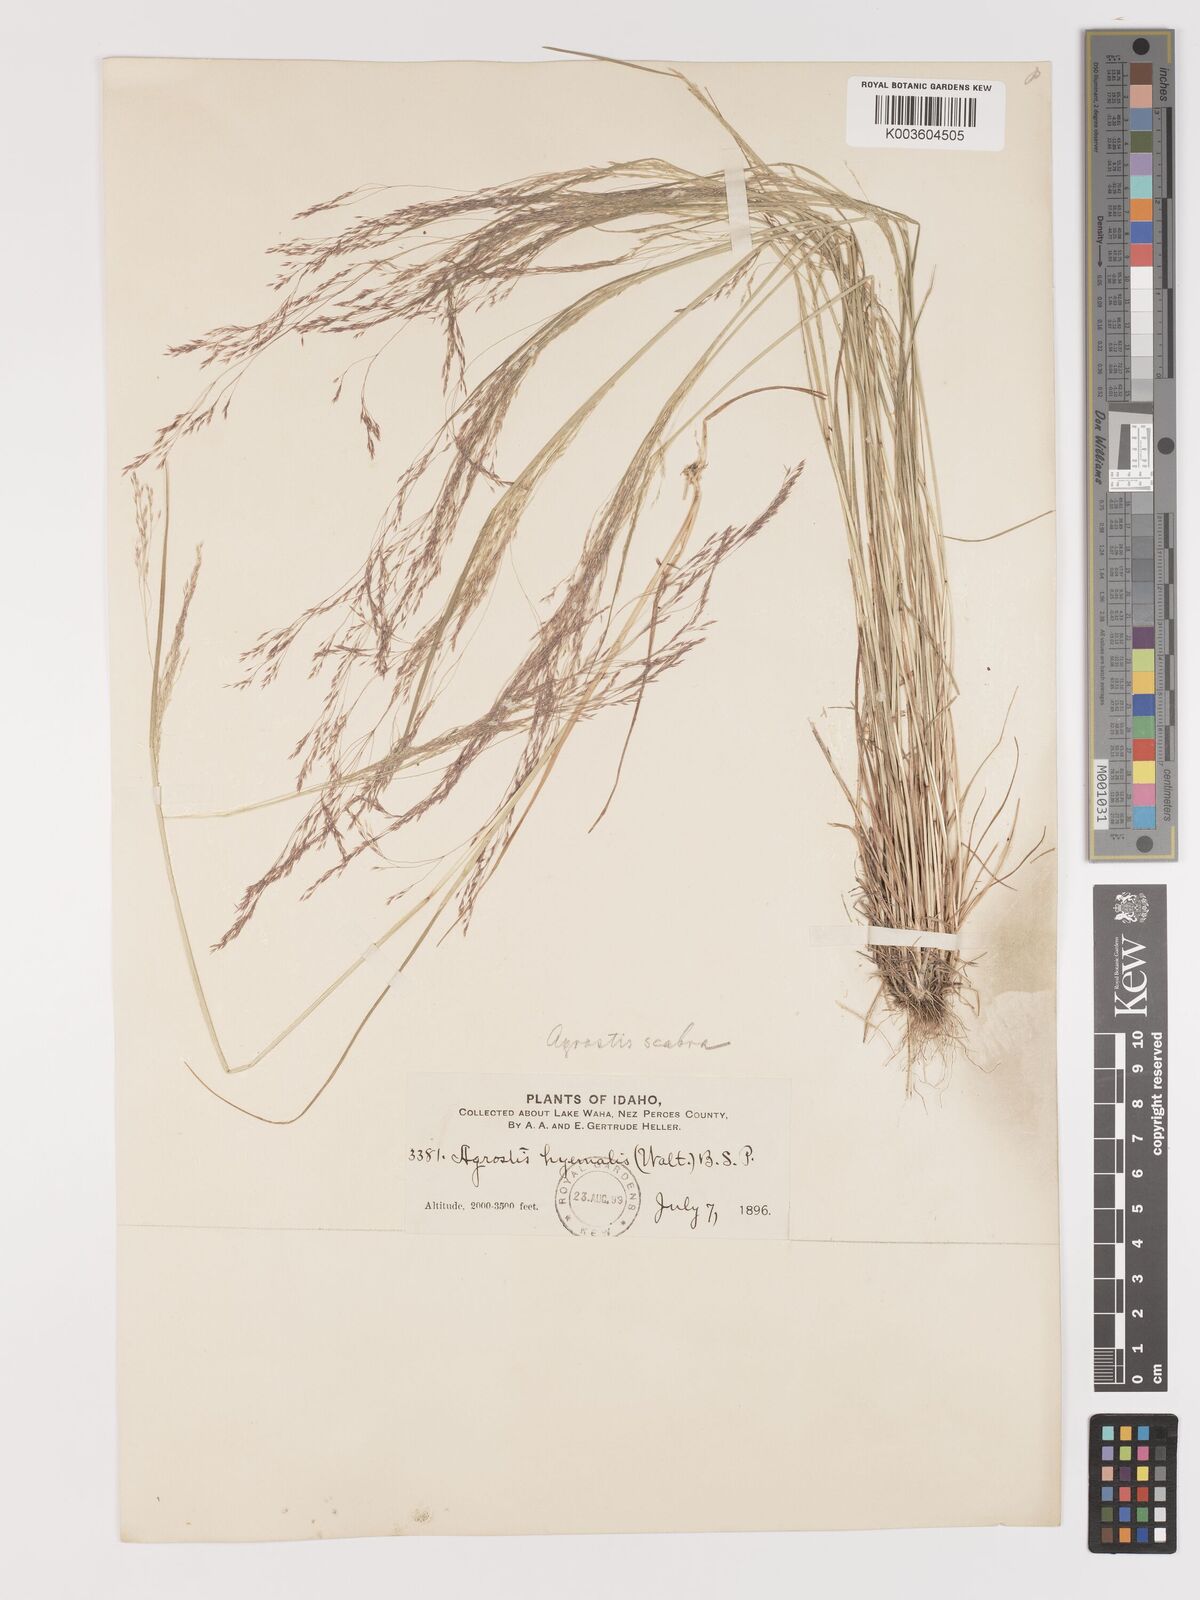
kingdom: Plantae
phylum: Tracheophyta
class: Liliopsida
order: Poales
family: Poaceae
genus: Agrostis
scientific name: Agrostis hyemalis
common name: Small bent
